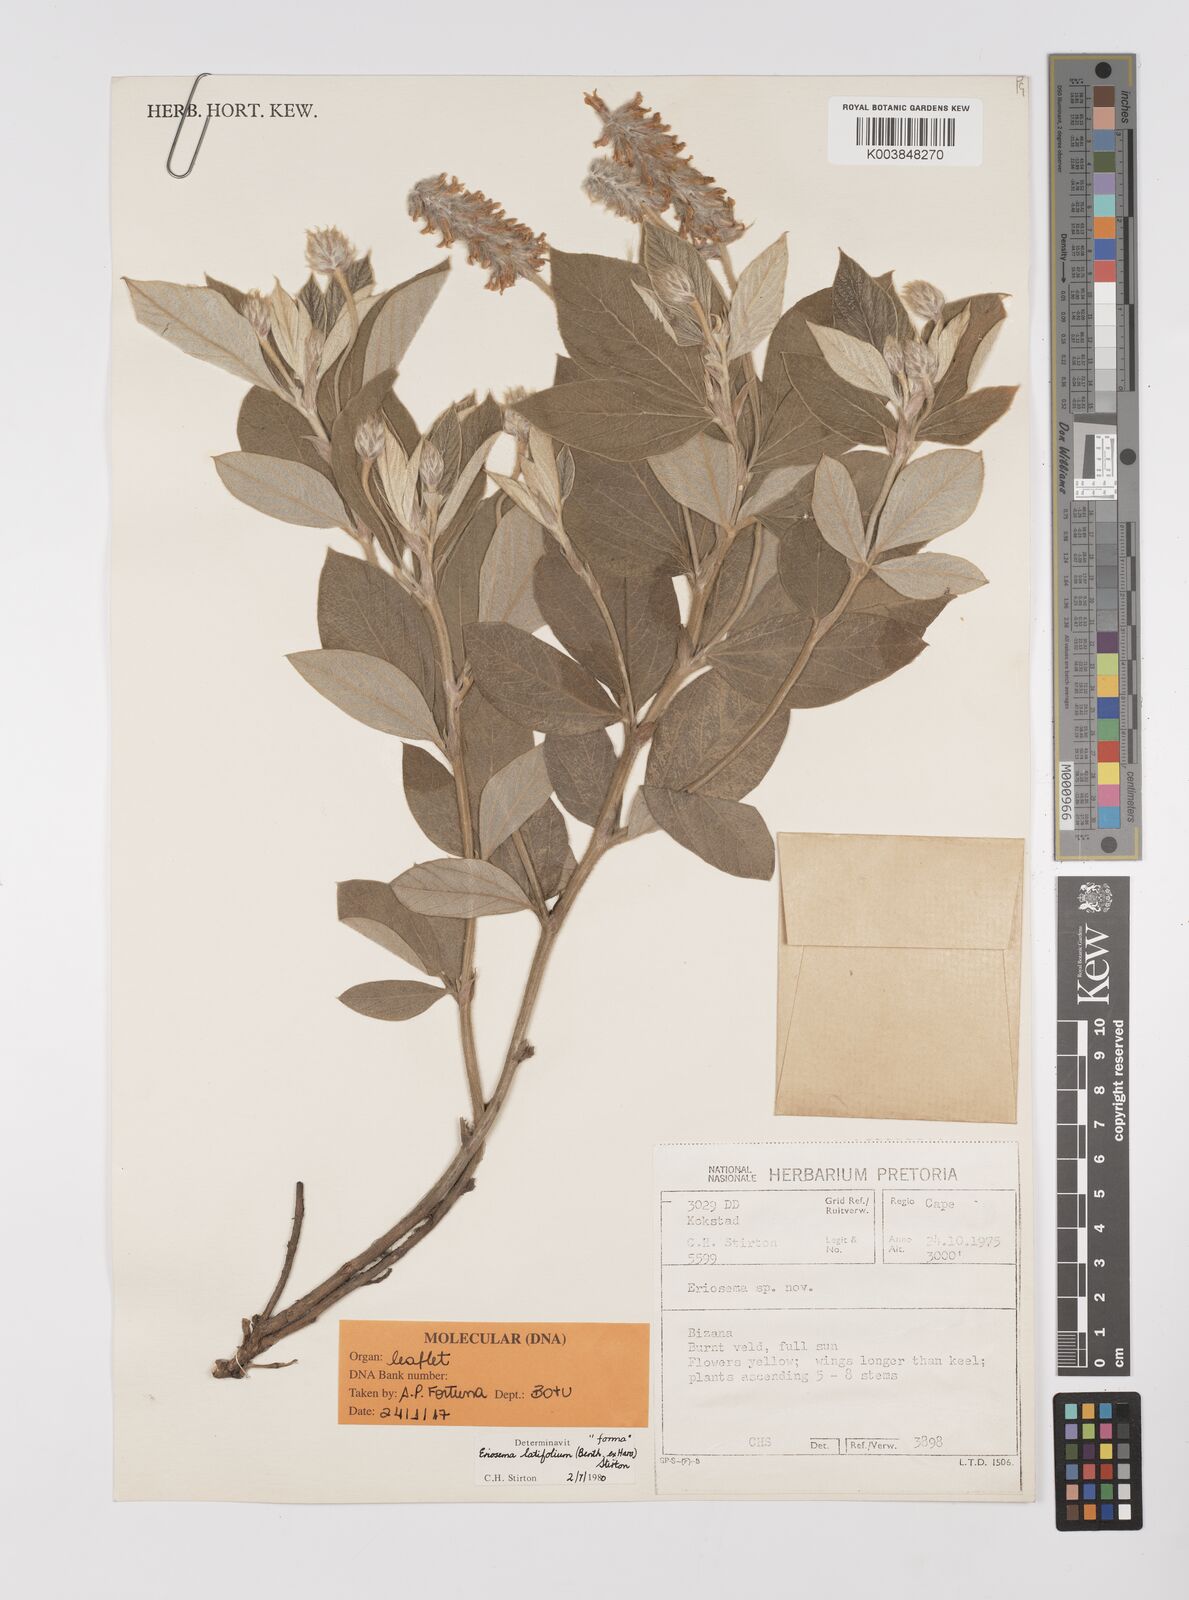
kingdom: Plantae
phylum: Tracheophyta
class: Magnoliopsida
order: Fabales
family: Fabaceae
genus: Eriosema
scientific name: Eriosema latifolium
